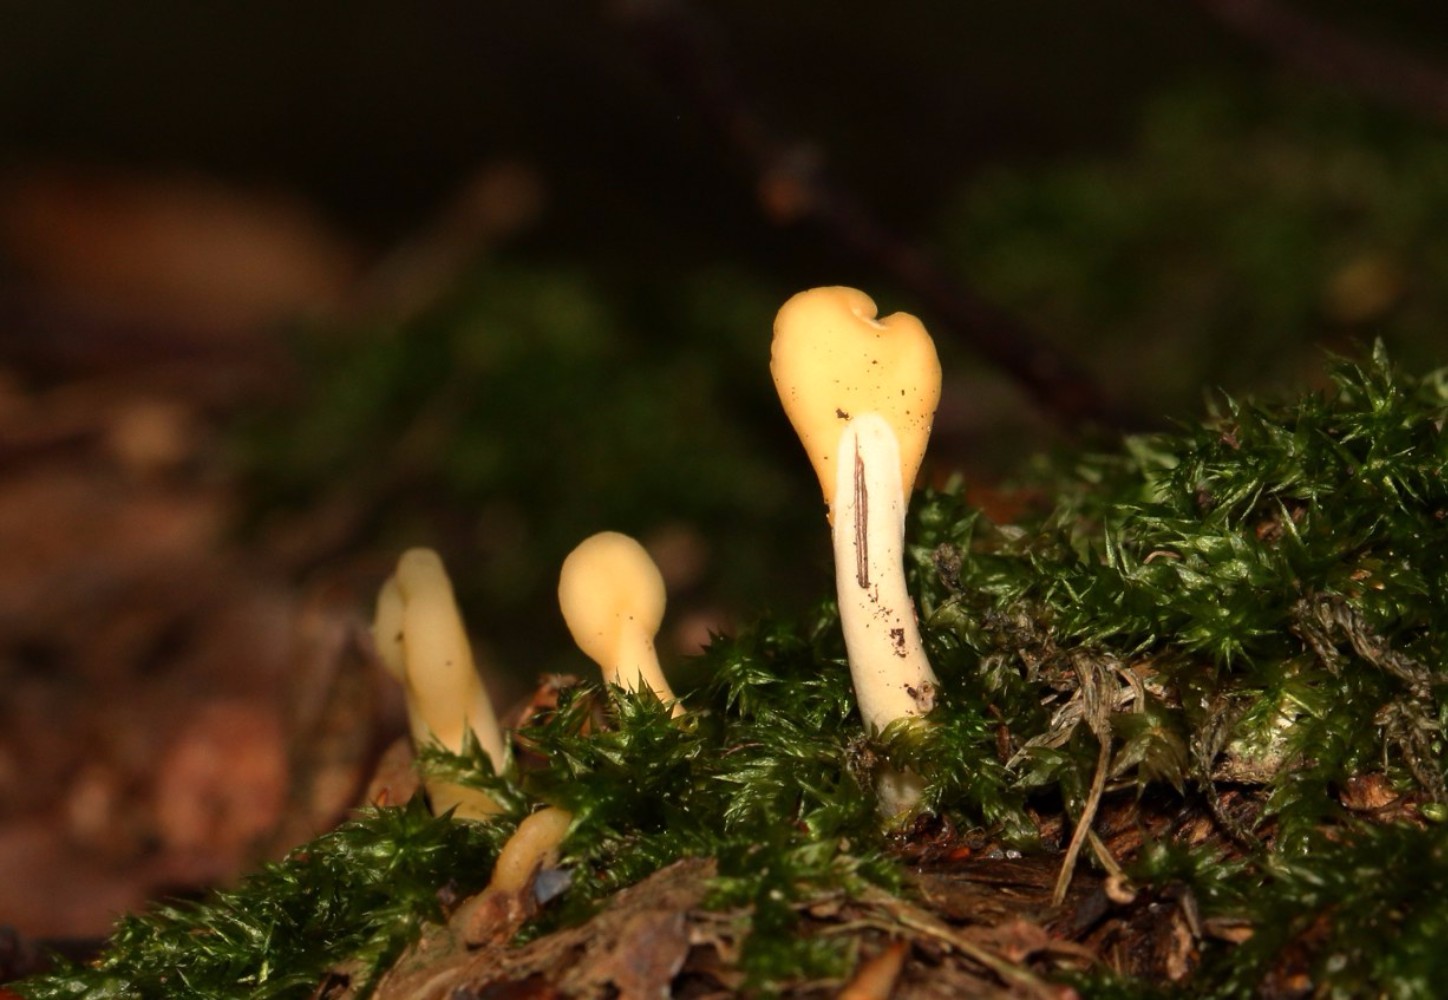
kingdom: Fungi
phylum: Ascomycota
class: Leotiomycetes
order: Rhytismatales
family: Cudoniaceae
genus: Spathularia
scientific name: Spathularia flavida
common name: gul spatelsvamp
